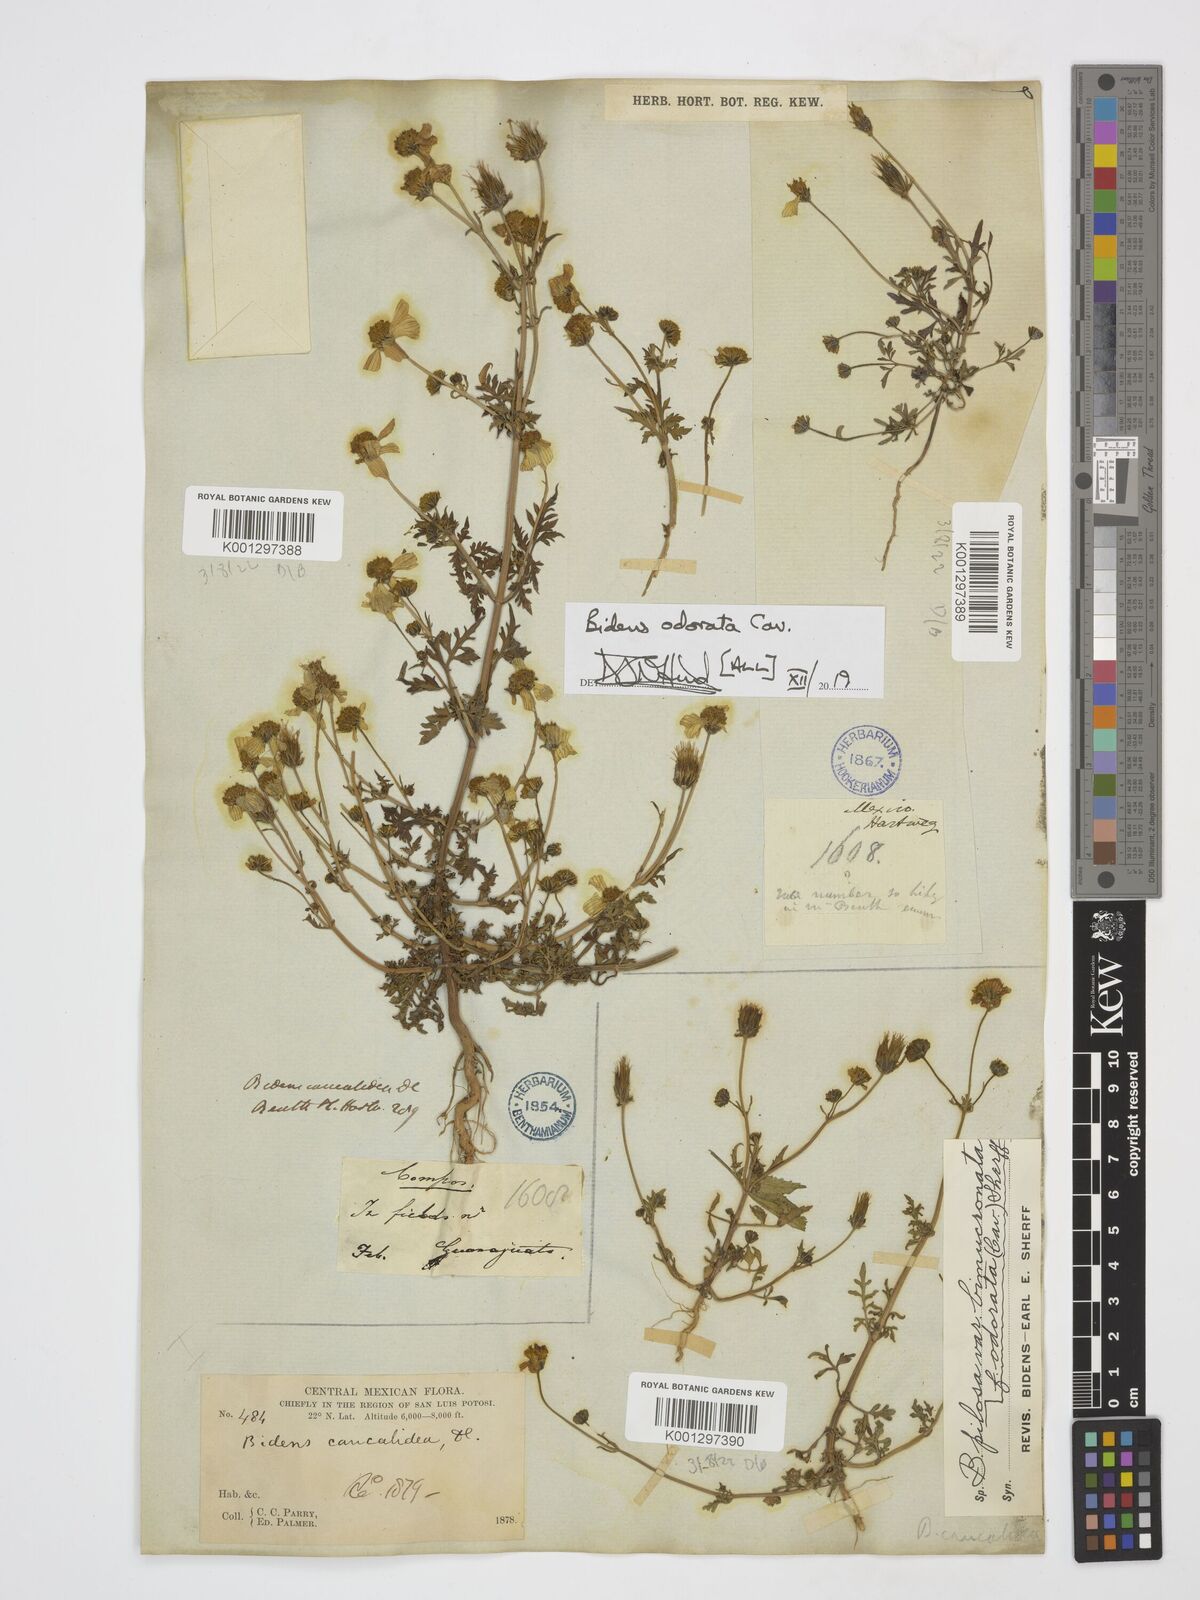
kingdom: Plantae
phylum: Tracheophyta
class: Magnoliopsida
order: Asterales
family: Asteraceae
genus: Bidens
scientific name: Bidens pilosa
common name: Black-jack
